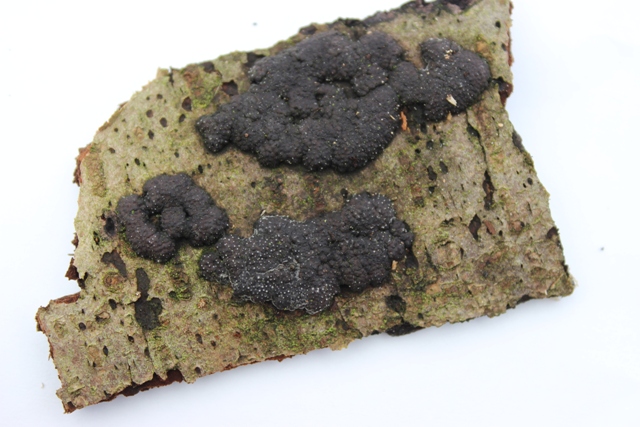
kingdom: Fungi
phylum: Ascomycota
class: Sordariomycetes
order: Xylariales
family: Hypoxylaceae
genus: Jackrogersella
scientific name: Jackrogersella cohaerens
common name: sammenflydende kulbær
